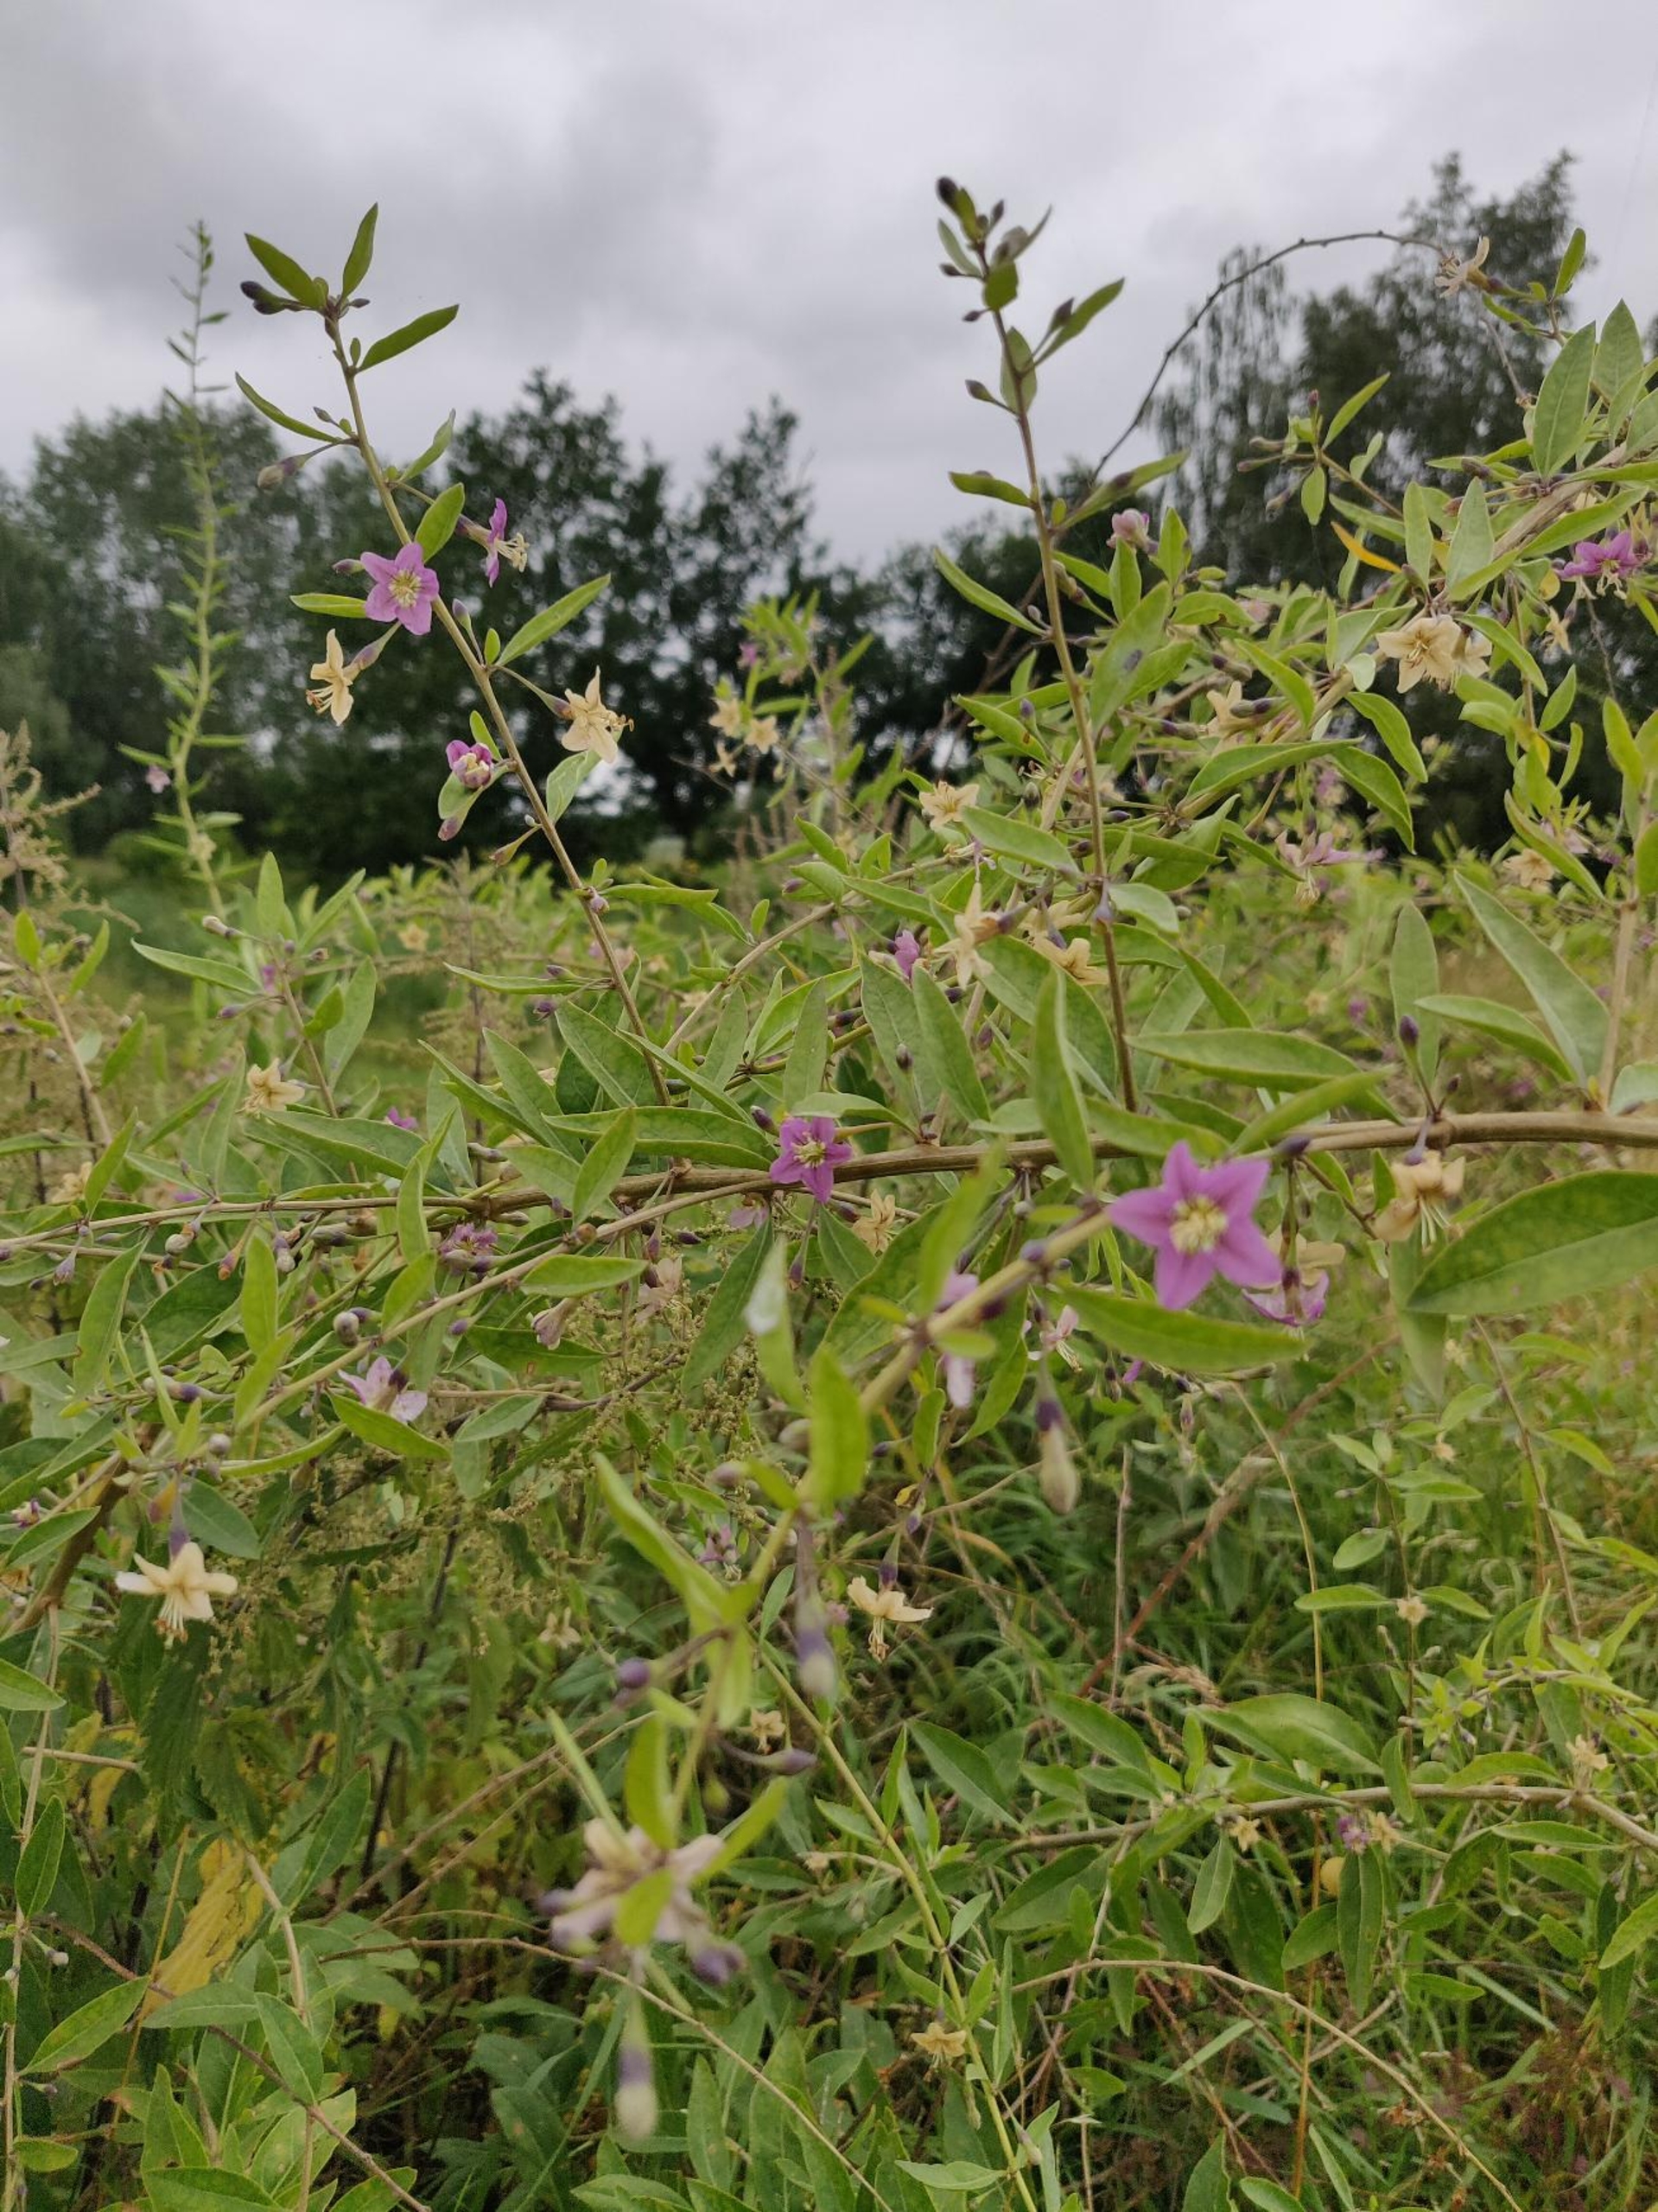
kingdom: Plantae
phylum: Tracheophyta
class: Magnoliopsida
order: Solanales
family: Solanaceae
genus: Lycium
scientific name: Lycium barbarum
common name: Bukketorn
